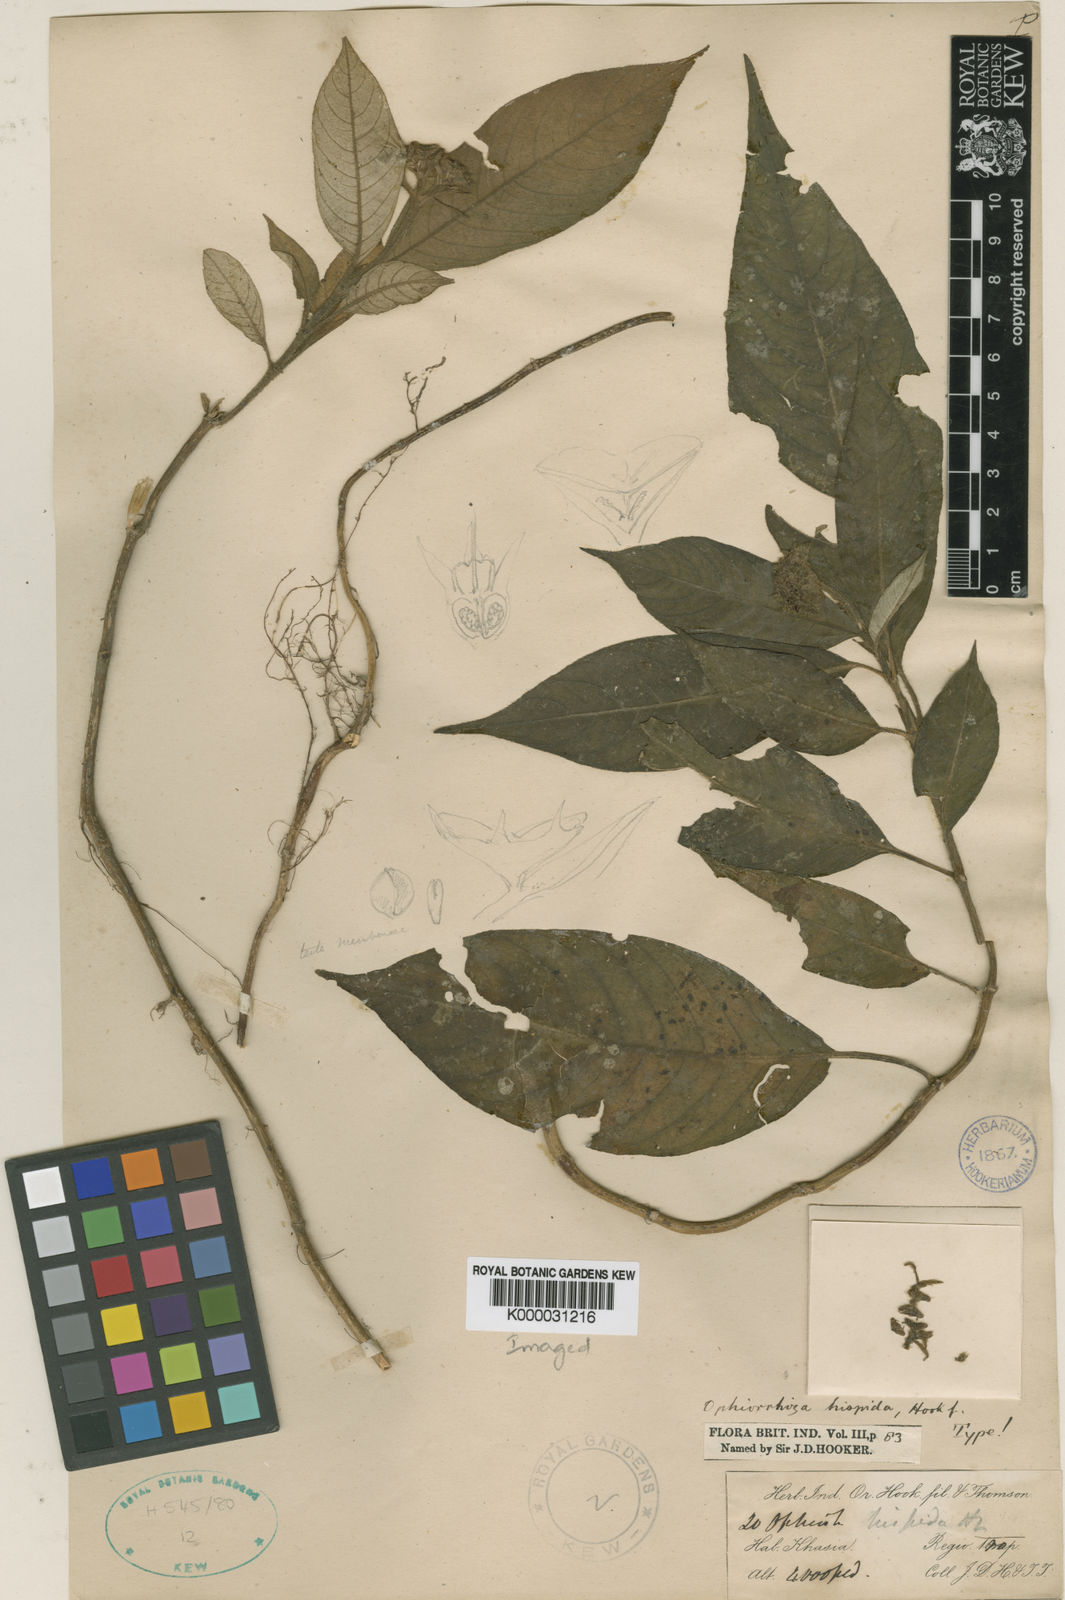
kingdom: Plantae
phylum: Tracheophyta
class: Magnoliopsida
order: Gentianales
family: Rubiaceae
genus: Ophiorrhiza
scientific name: Ophiorrhiza hispida
